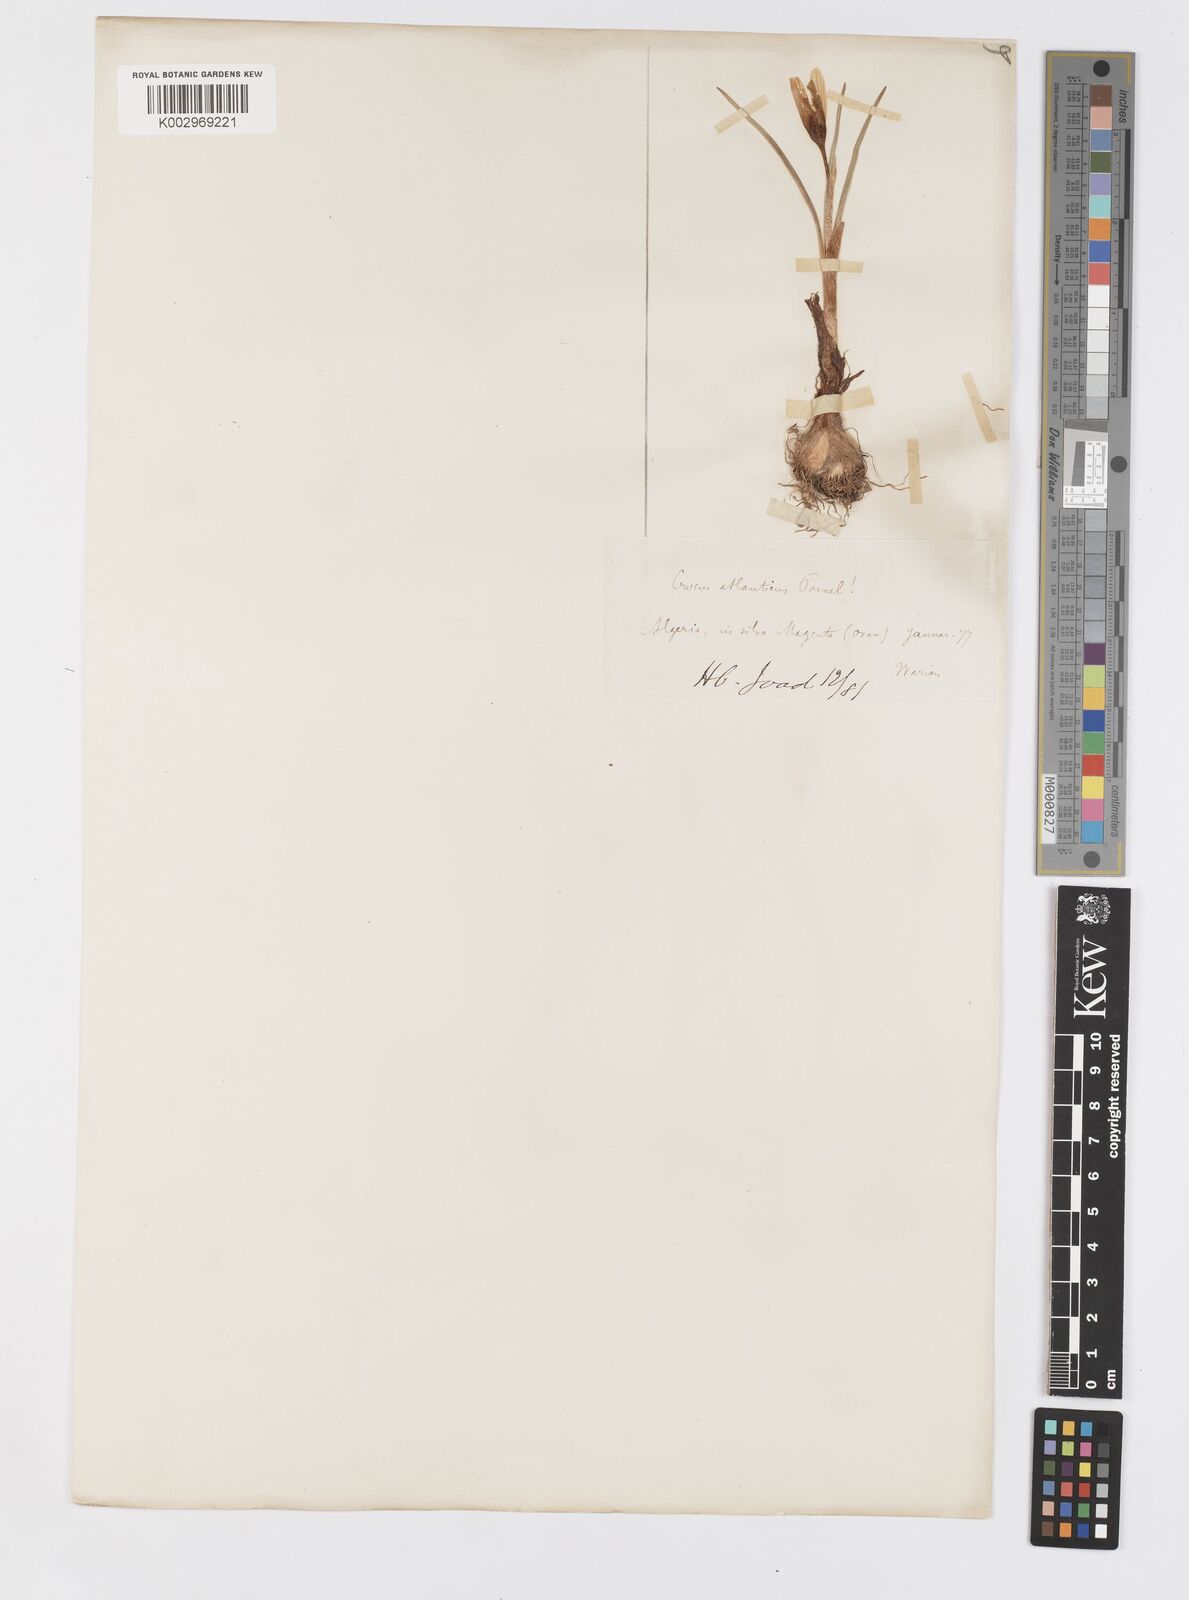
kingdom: Plantae
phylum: Tracheophyta
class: Liliopsida
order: Asparagales
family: Iridaceae
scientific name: Iridaceae
